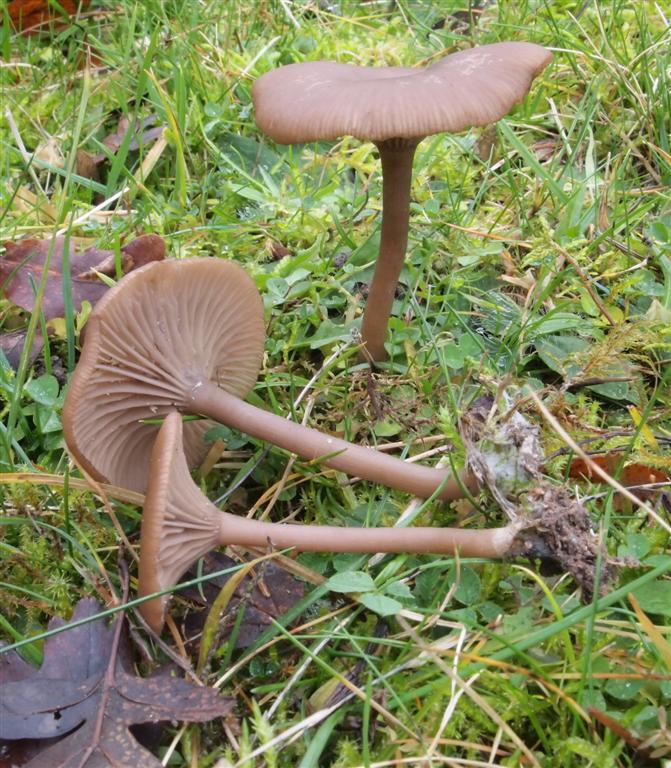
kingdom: Fungi
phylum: Basidiomycota
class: Agaricomycetes
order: Agaricales
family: Pseudoclitocybaceae
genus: Pseudoclitocybe
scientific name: Pseudoclitocybe expallens
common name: lille bægertragthat
